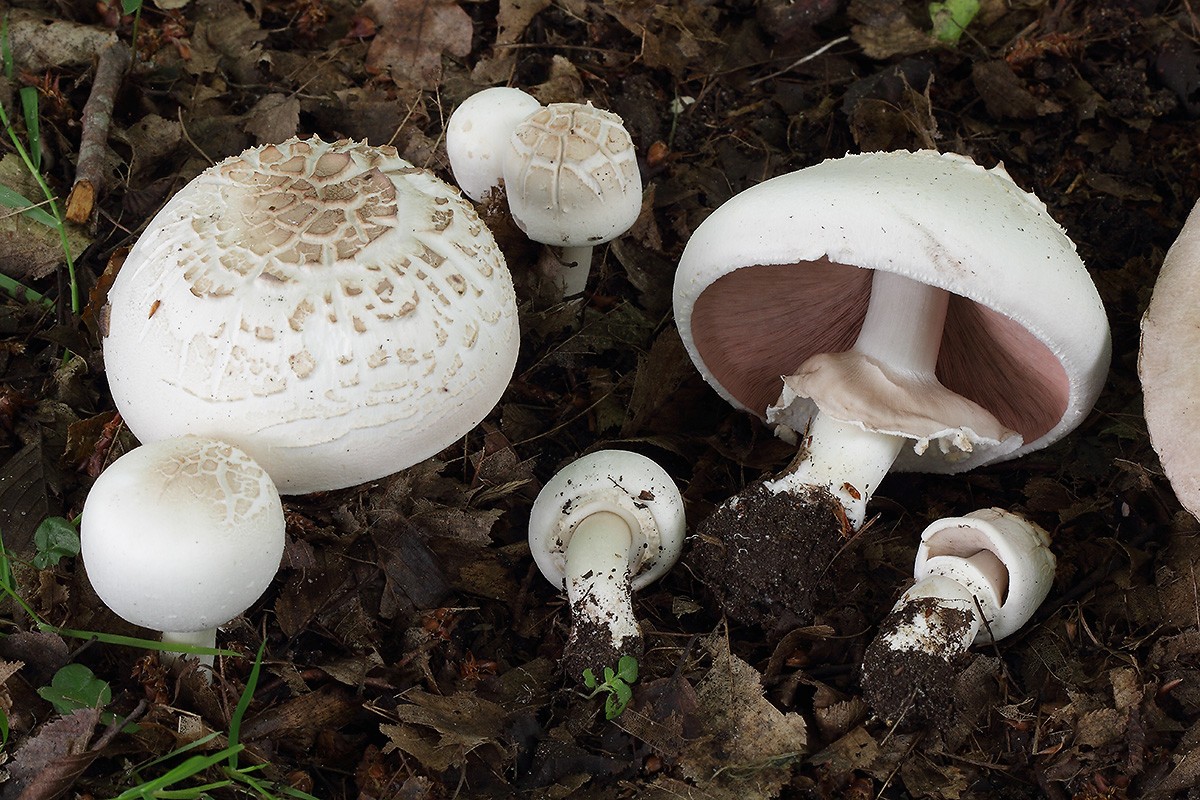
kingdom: Fungi
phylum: Basidiomycota
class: Agaricomycetes
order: Agaricales
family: Agaricaceae
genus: Agaricus
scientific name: Agaricus xanthodermus
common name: karbol-champignon
